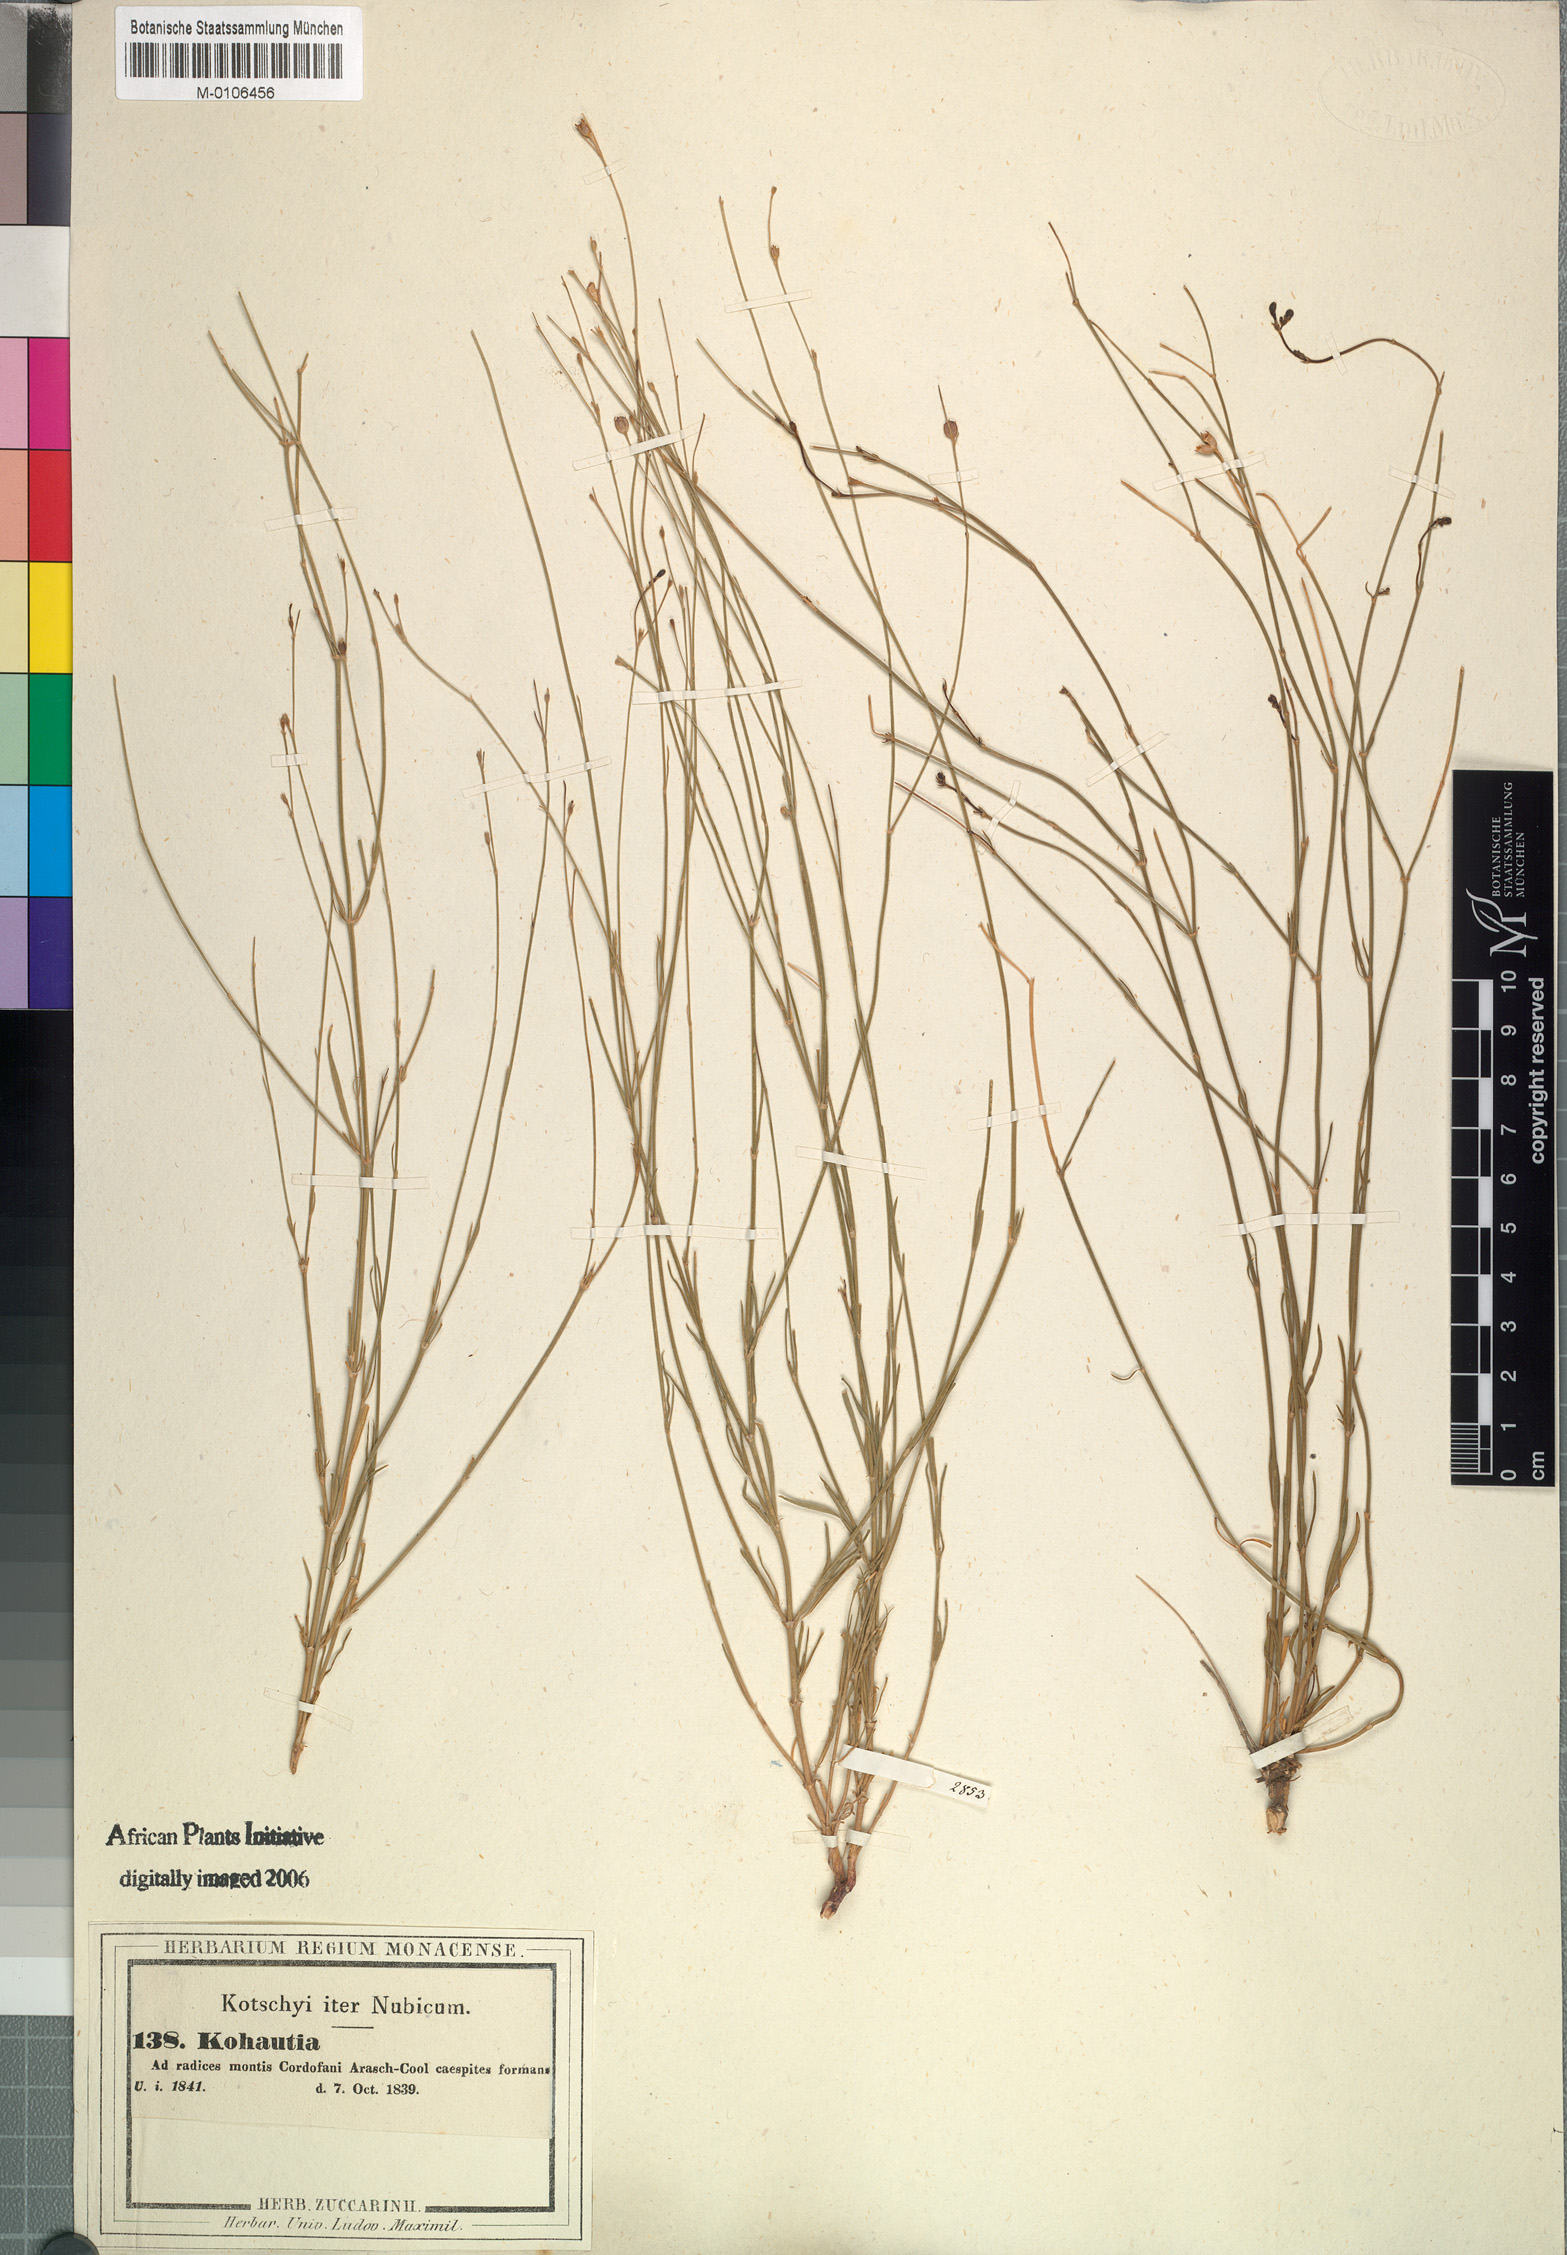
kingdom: Plantae
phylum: Tracheophyta
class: Magnoliopsida
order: Gentianales
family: Rubiaceae
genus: Kohautia
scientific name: Kohautia caespitosa
